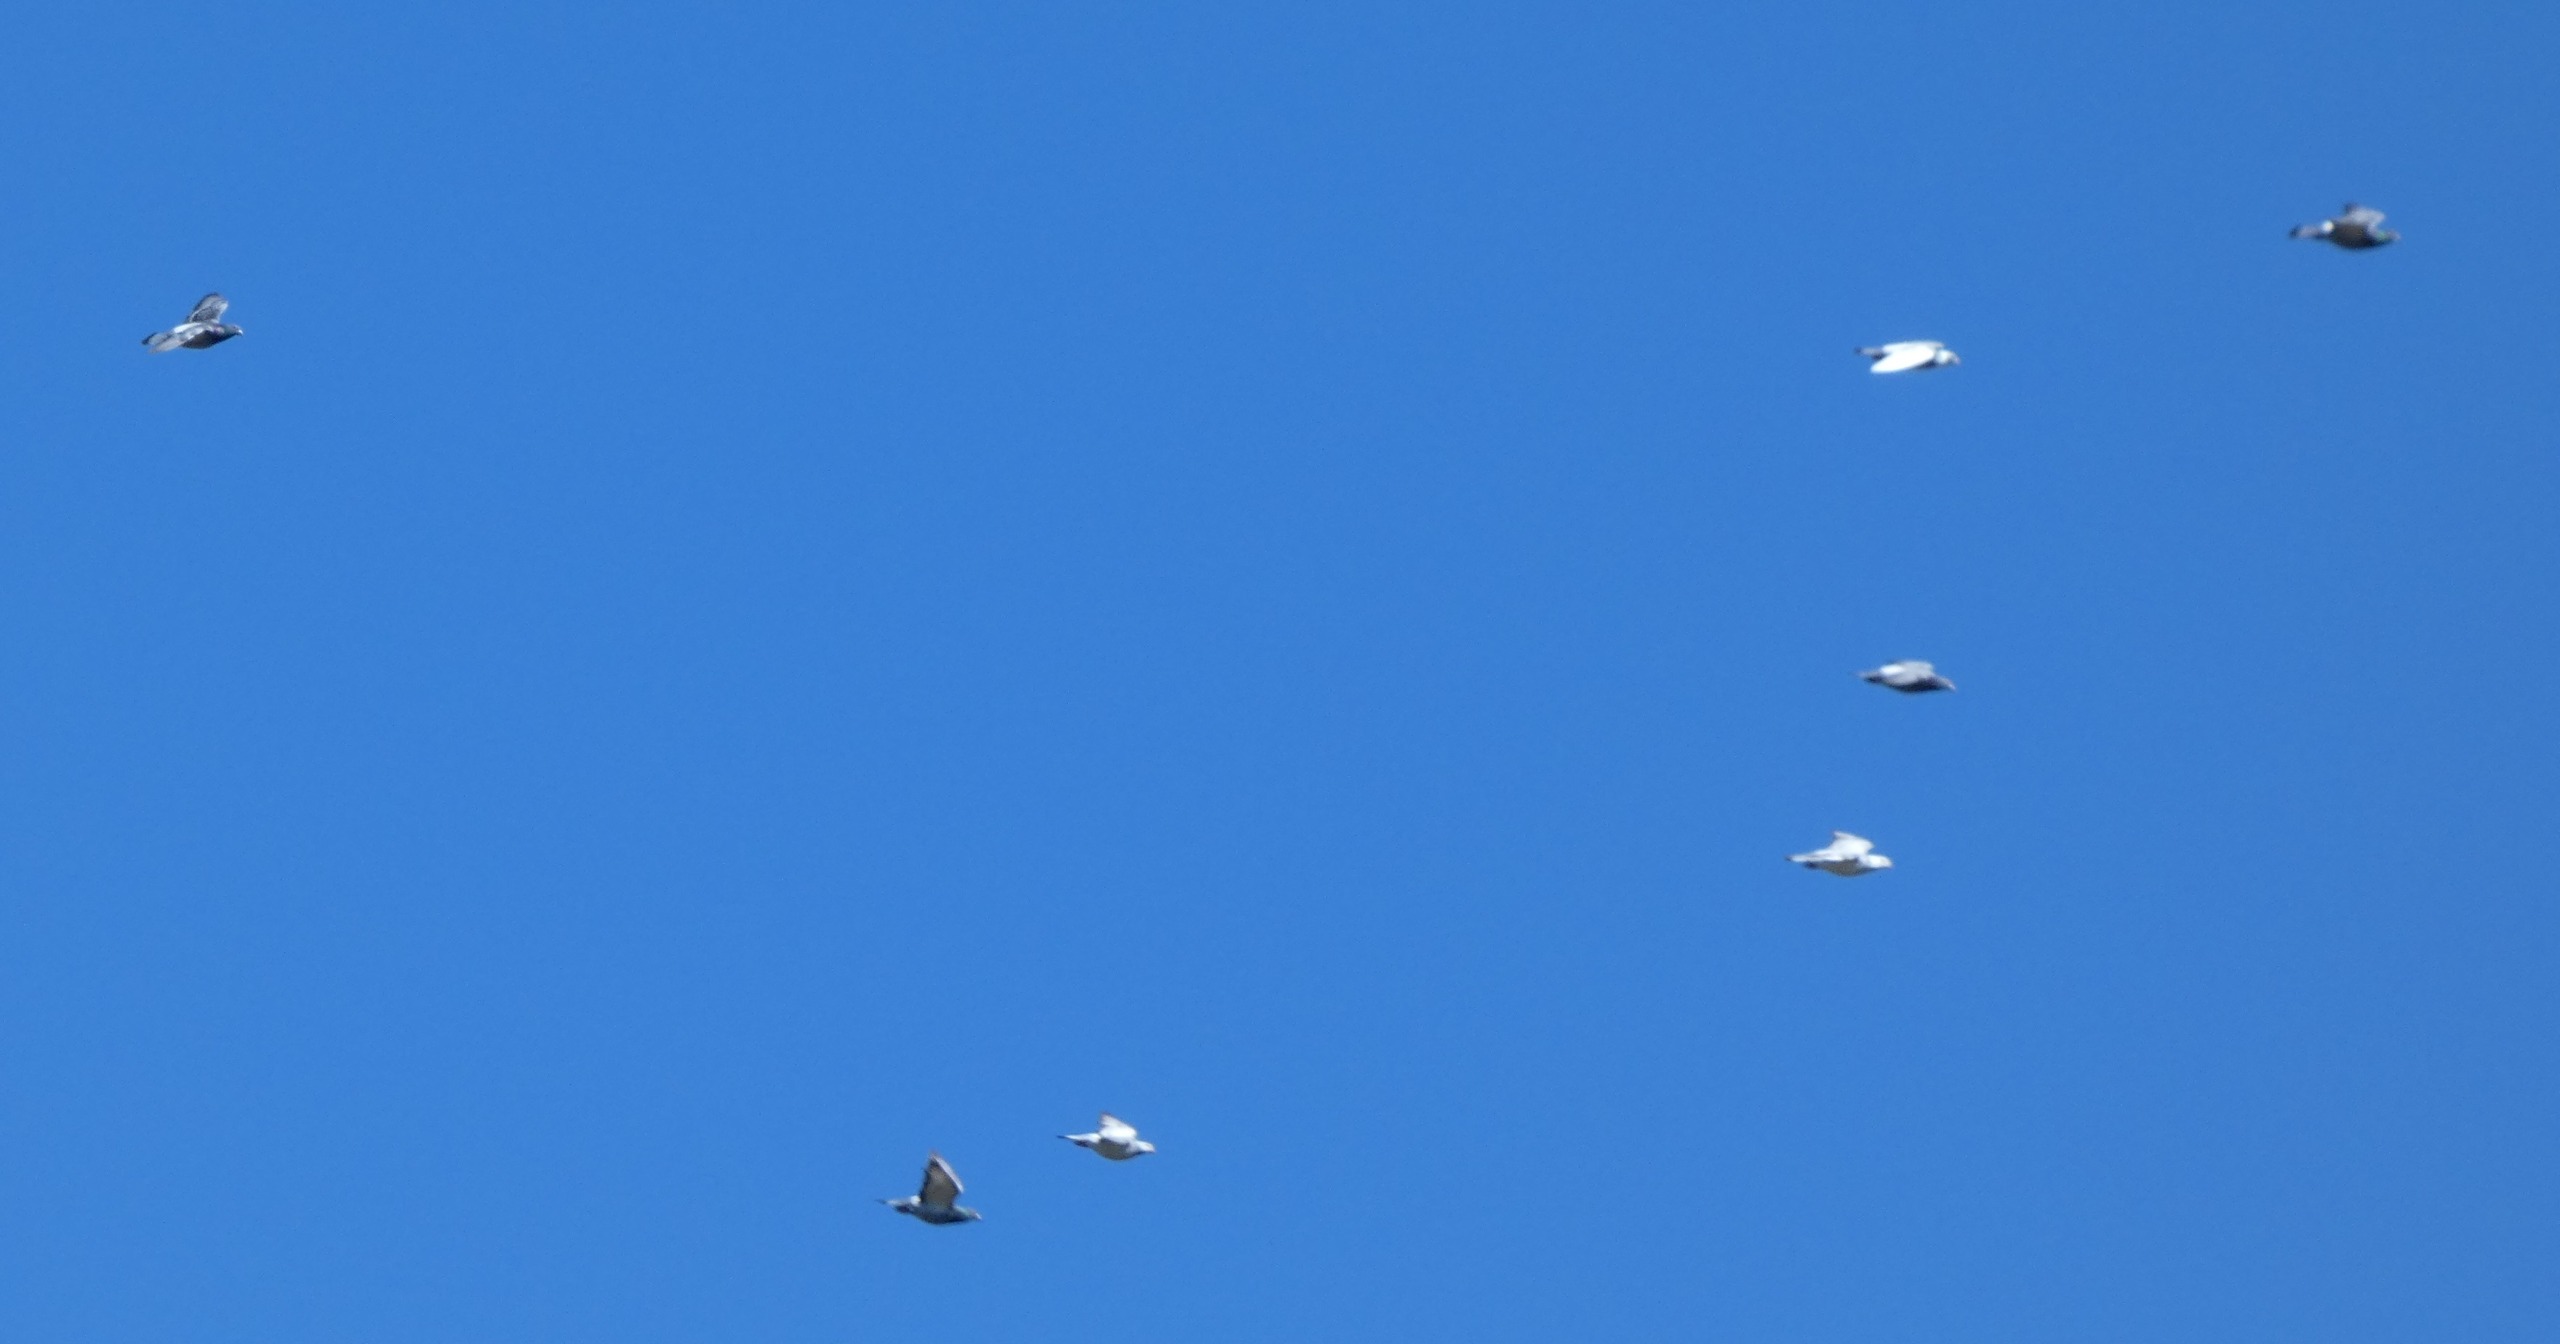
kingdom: Animalia
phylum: Chordata
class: Aves
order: Columbiformes
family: Columbidae
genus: Columba
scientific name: Columba livia
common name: Tamdue
